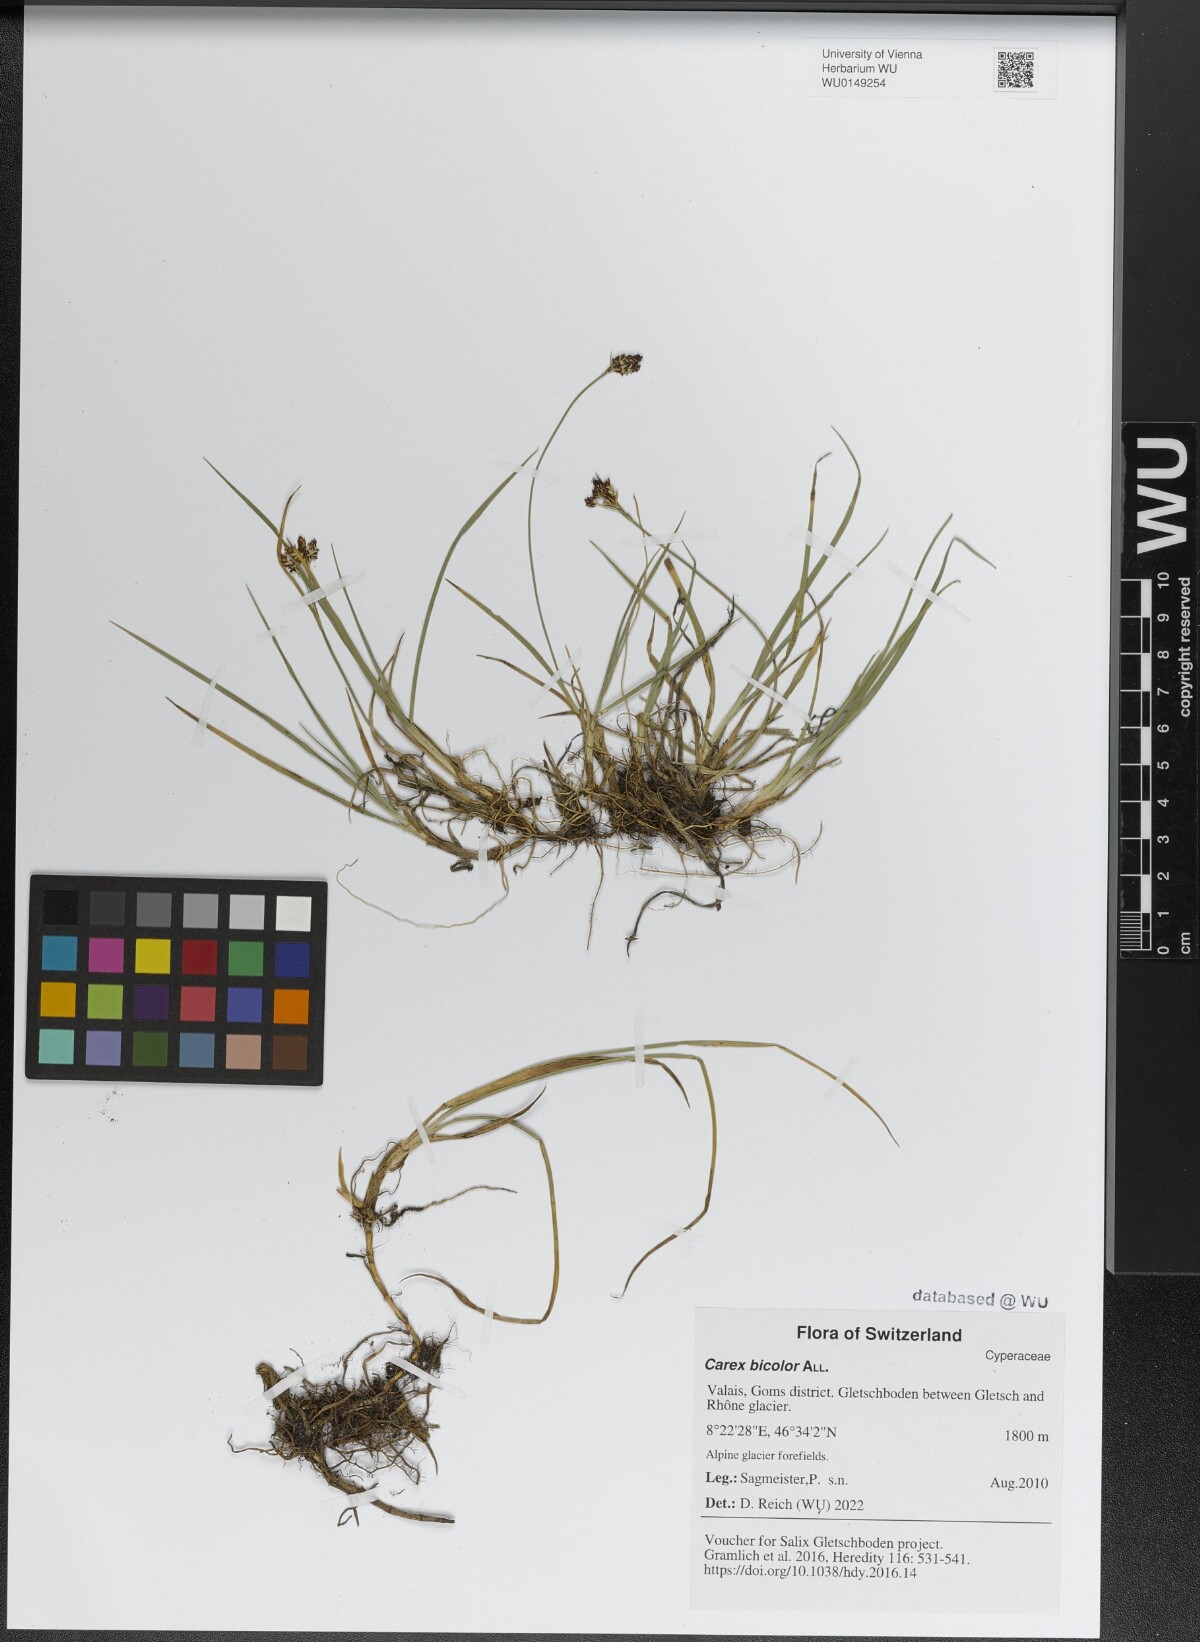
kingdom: Plantae
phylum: Tracheophyta
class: Liliopsida
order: Poales
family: Cyperaceae
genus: Carex
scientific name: Carex bicolor
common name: Bicoloured sedge
